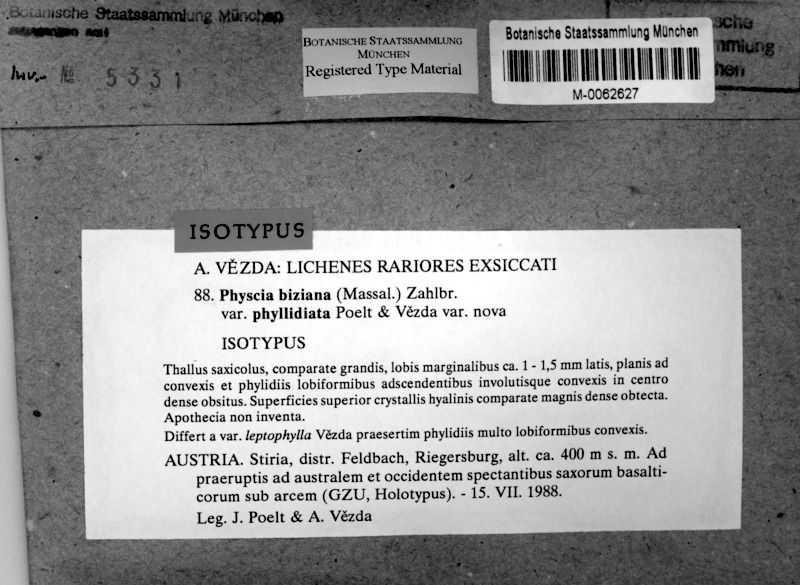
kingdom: Fungi
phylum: Ascomycota
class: Lecanoromycetes
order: Caliciales
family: Physciaceae
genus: Physcia
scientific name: Physcia biziana
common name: Frosted rosette lichen
